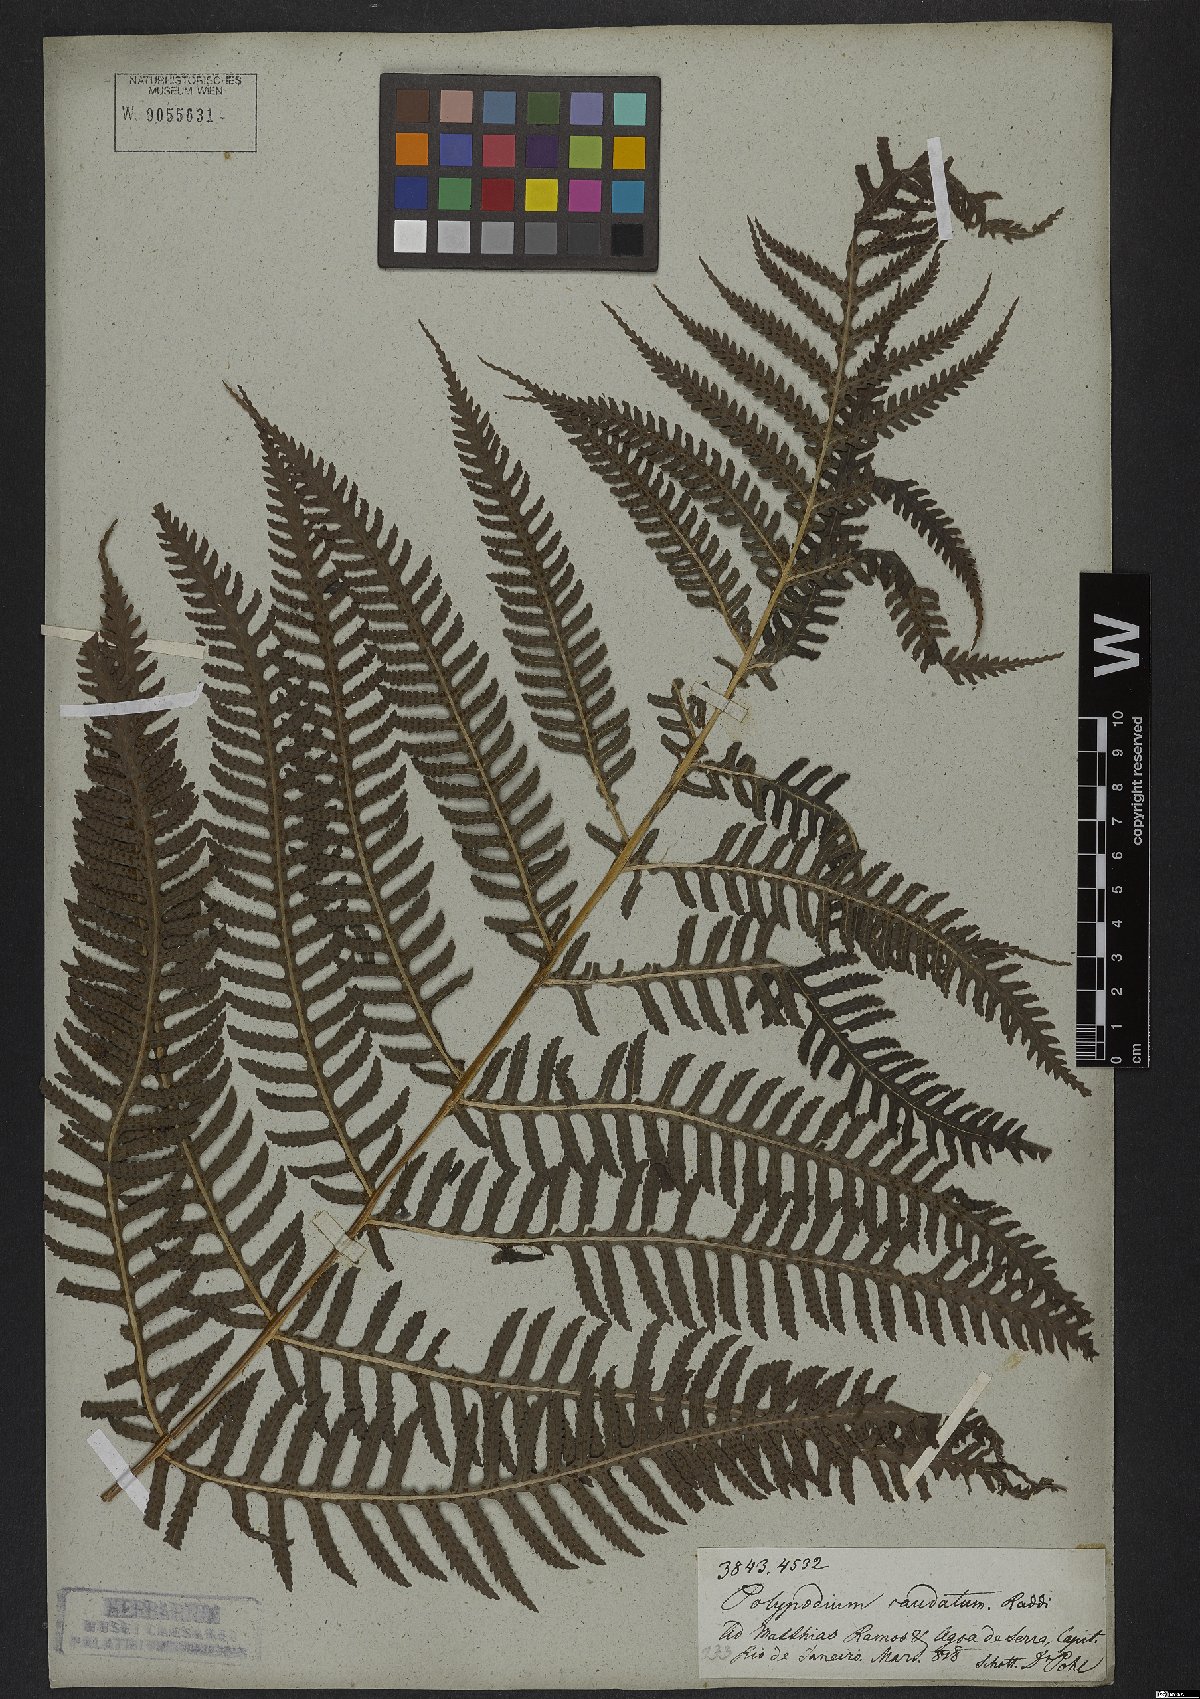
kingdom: Plantae
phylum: Tracheophyta
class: Polypodiopsida
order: Polypodiales
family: Dryopteridaceae
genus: Stigmatopteris
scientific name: Stigmatopteris caudata
